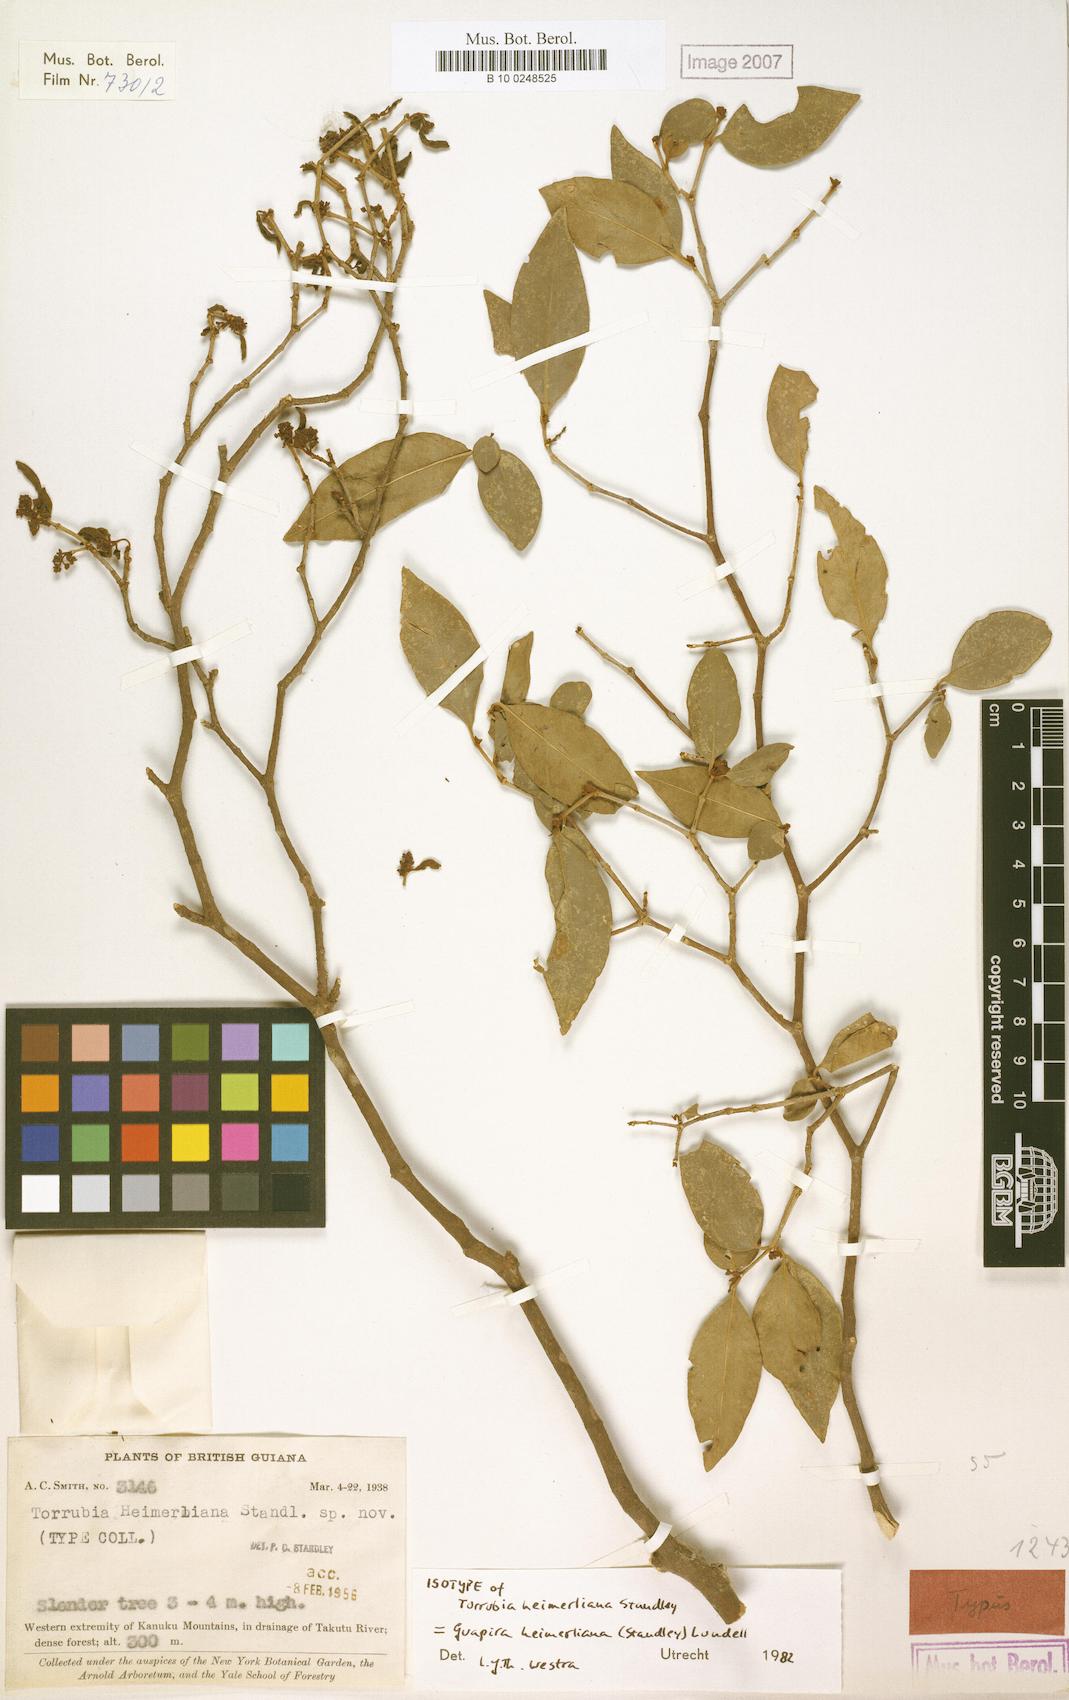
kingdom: Plantae
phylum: Tracheophyta
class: Magnoliopsida
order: Caryophyllales
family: Nyctaginaceae
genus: Guapira
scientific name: Guapira salicifolia
